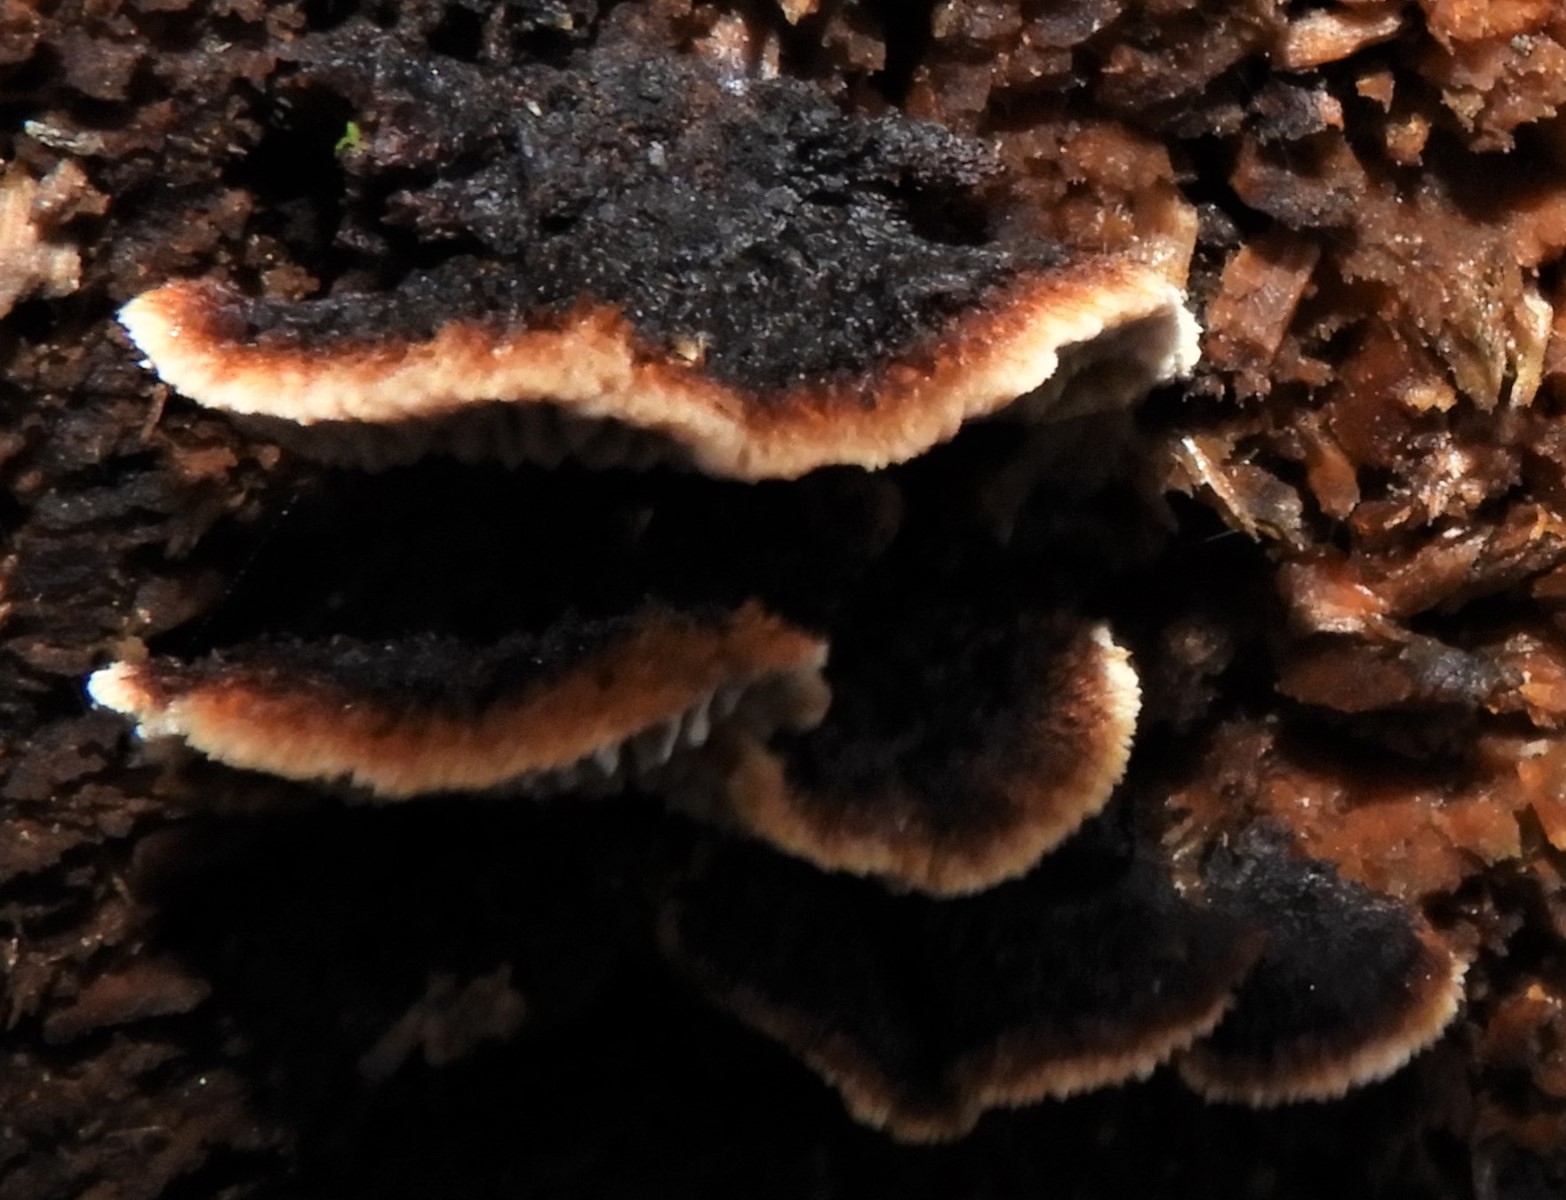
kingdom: Fungi
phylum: Basidiomycota
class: Agaricomycetes
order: Gloeophyllales
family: Gloeophyllaceae
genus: Gloeophyllum
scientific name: Gloeophyllum sepiarium
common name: fyrre-korkhat
